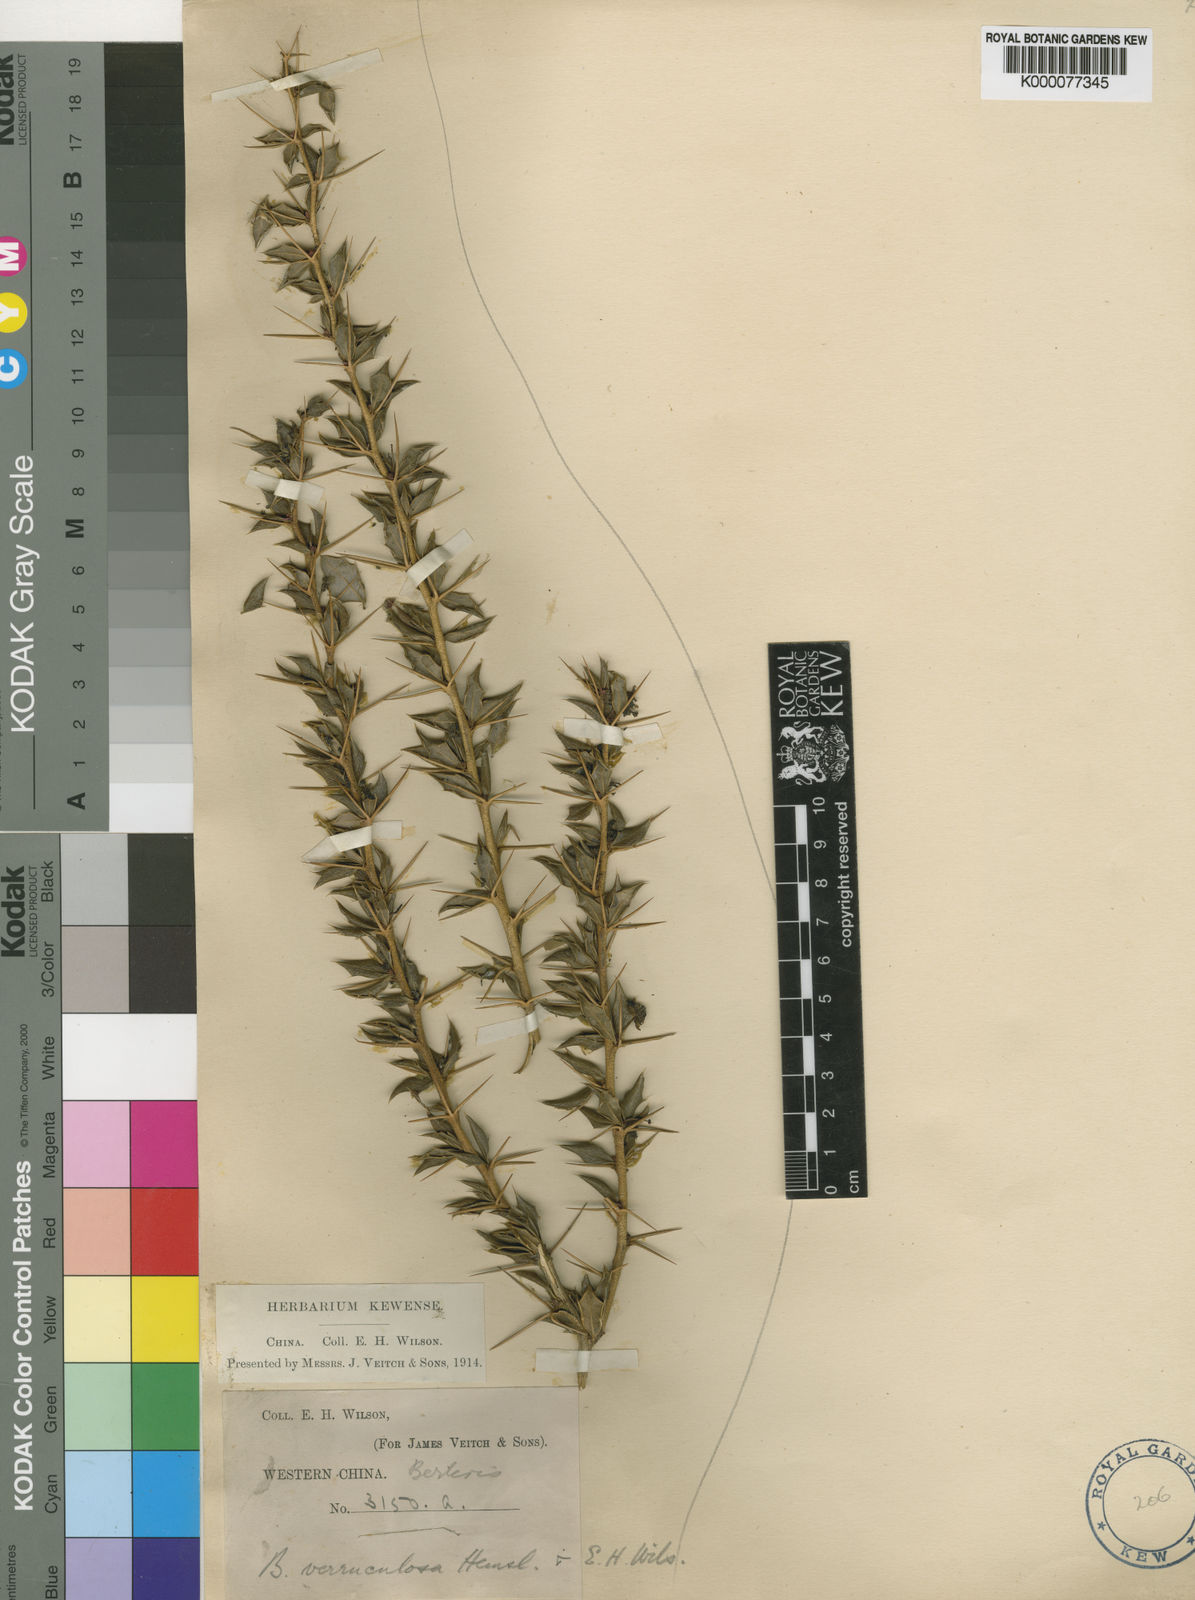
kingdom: Plantae
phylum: Tracheophyta
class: Magnoliopsida
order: Ranunculales
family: Berberidaceae
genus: Berberis
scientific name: Berberis verruculosa
